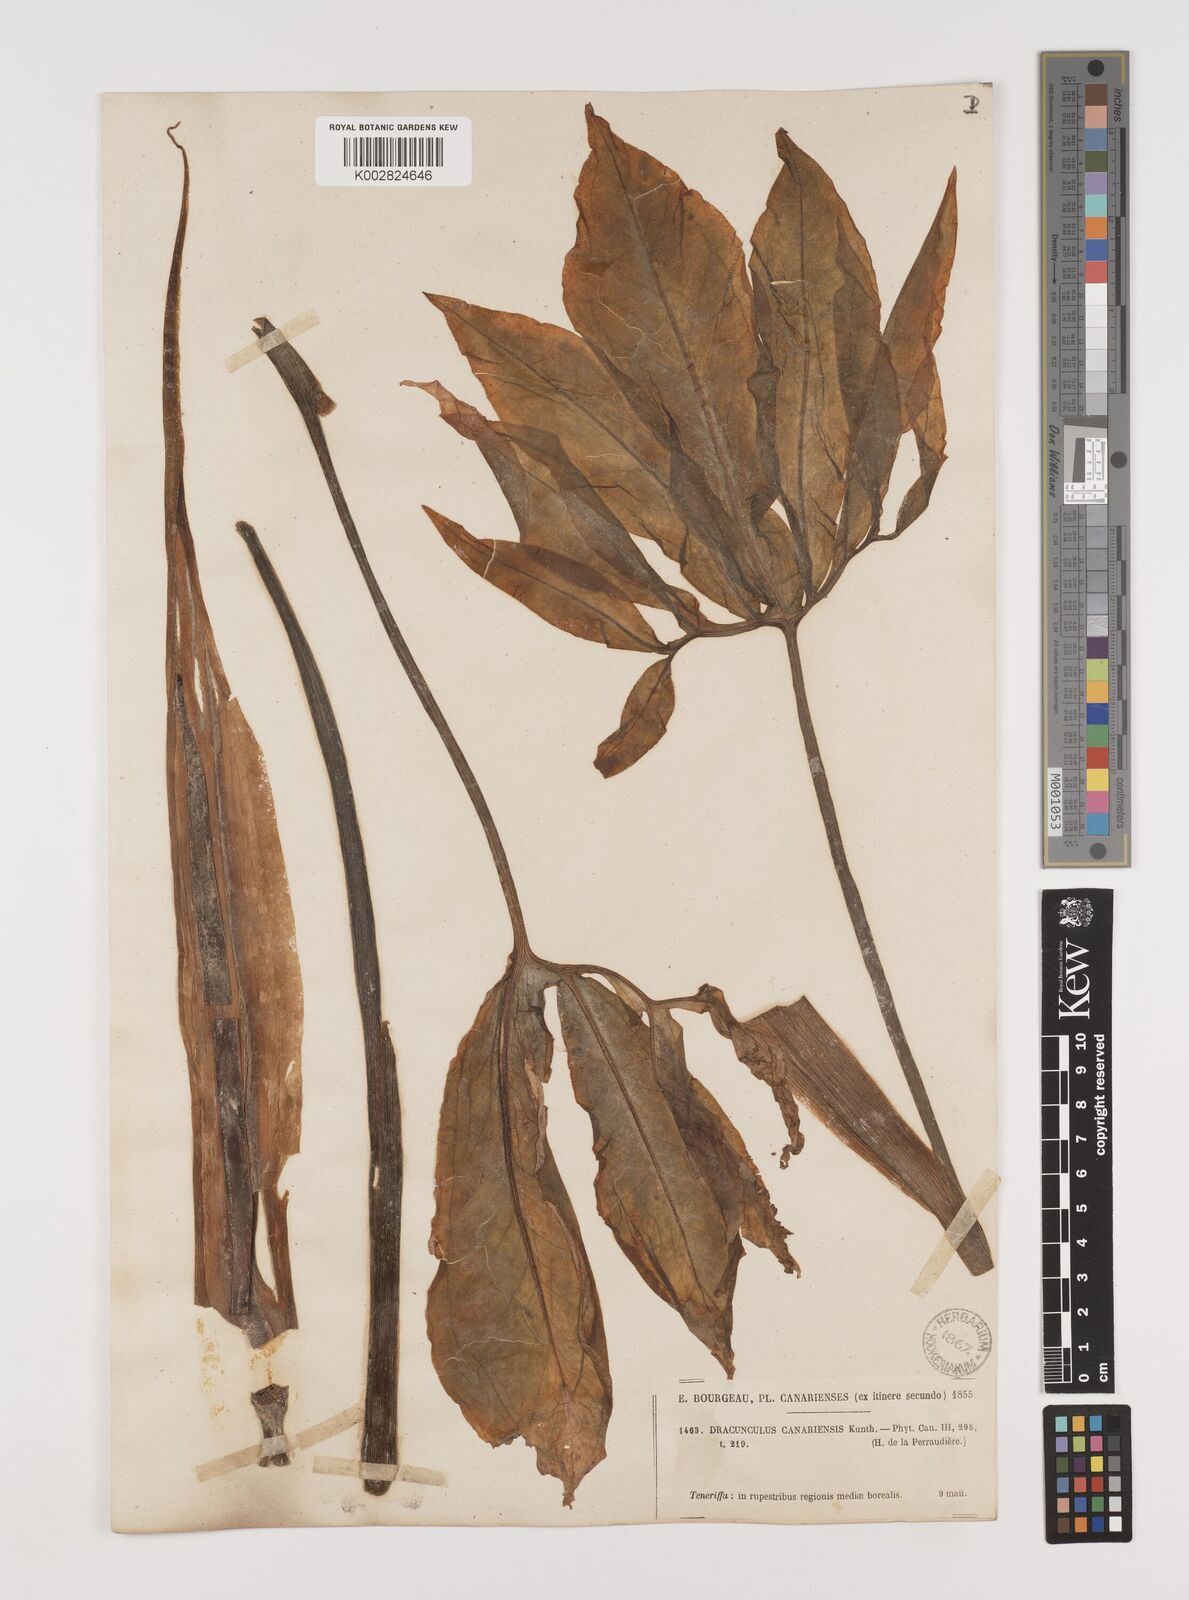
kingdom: Plantae
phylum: Tracheophyta
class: Liliopsida
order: Alismatales
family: Araceae
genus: Dracunculus
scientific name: Dracunculus canariensis
